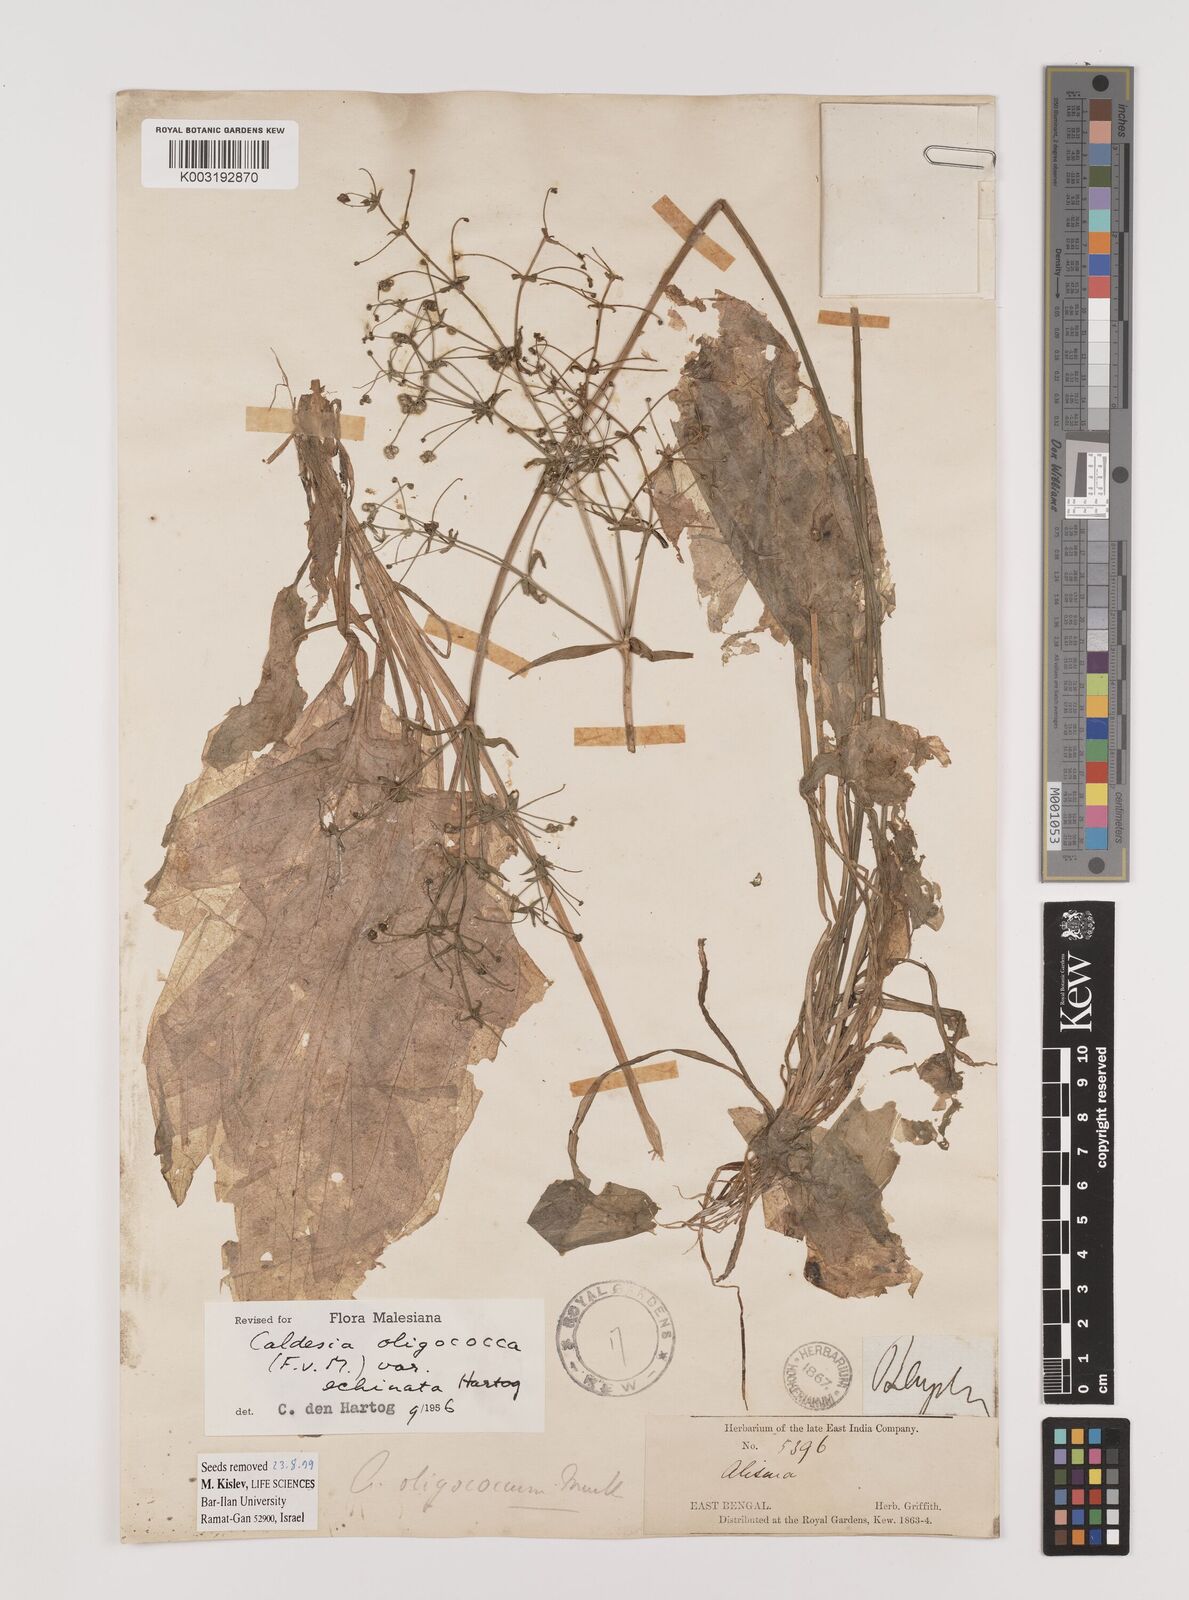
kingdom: Plantae
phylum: Tracheophyta
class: Liliopsida
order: Alismatales
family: Alismataceae
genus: Albidella
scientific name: Albidella oligococca
